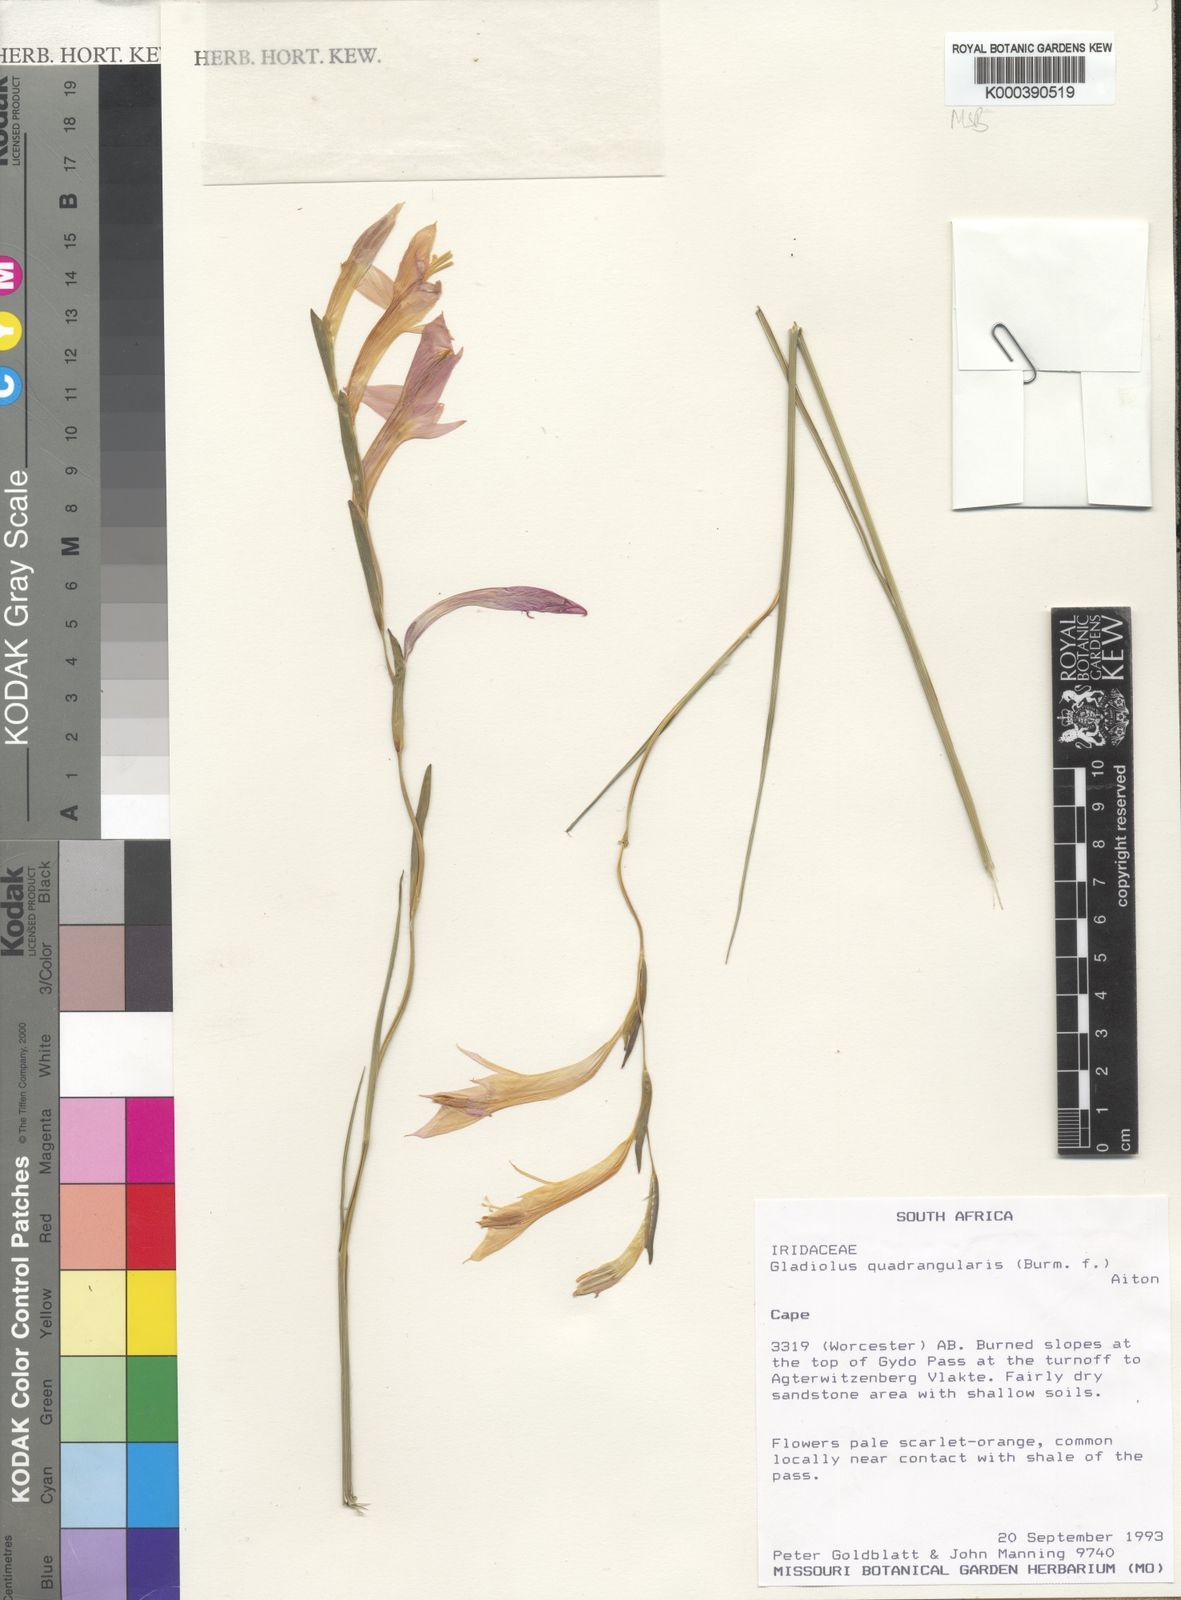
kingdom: Plantae
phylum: Tracheophyta
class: Liliopsida
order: Asparagales
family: Iridaceae
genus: Gladiolus
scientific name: Gladiolus quadrangulus
